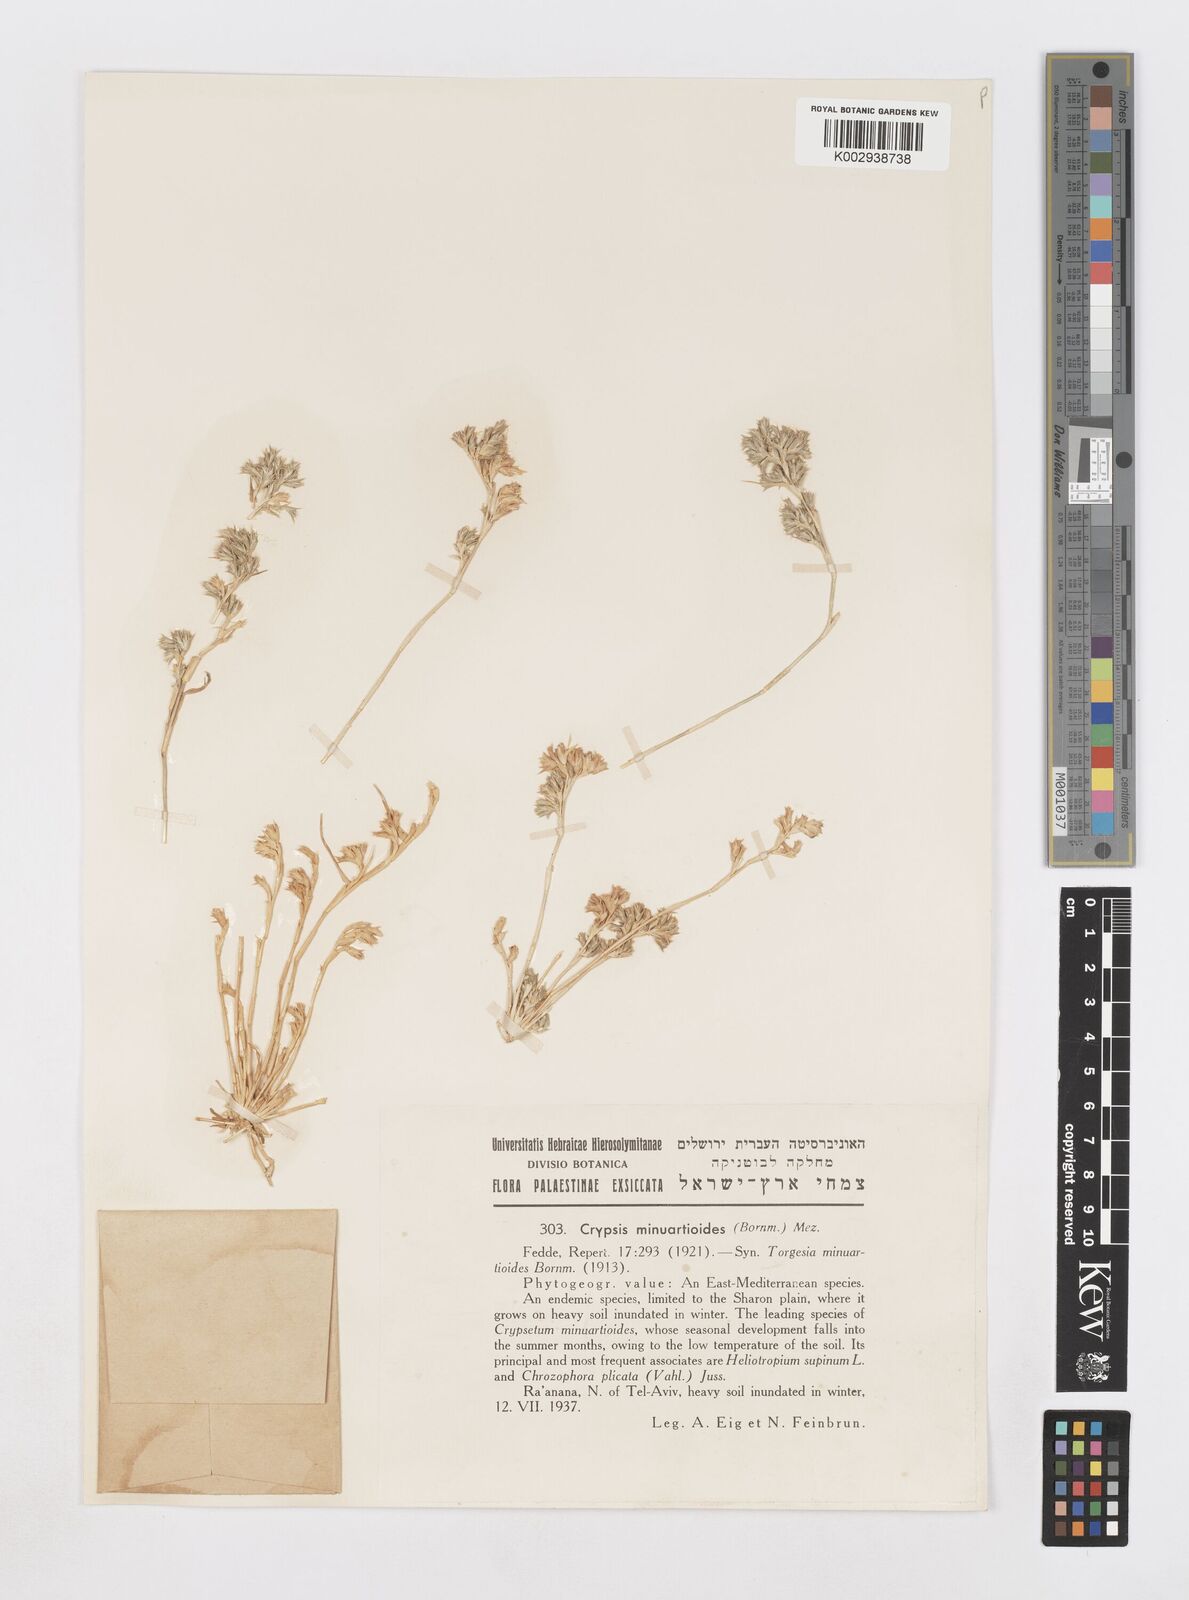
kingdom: Plantae
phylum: Tracheophyta
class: Liliopsida
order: Poales
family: Poaceae
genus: Sporobolus
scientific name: Sporobolus minuartioides
